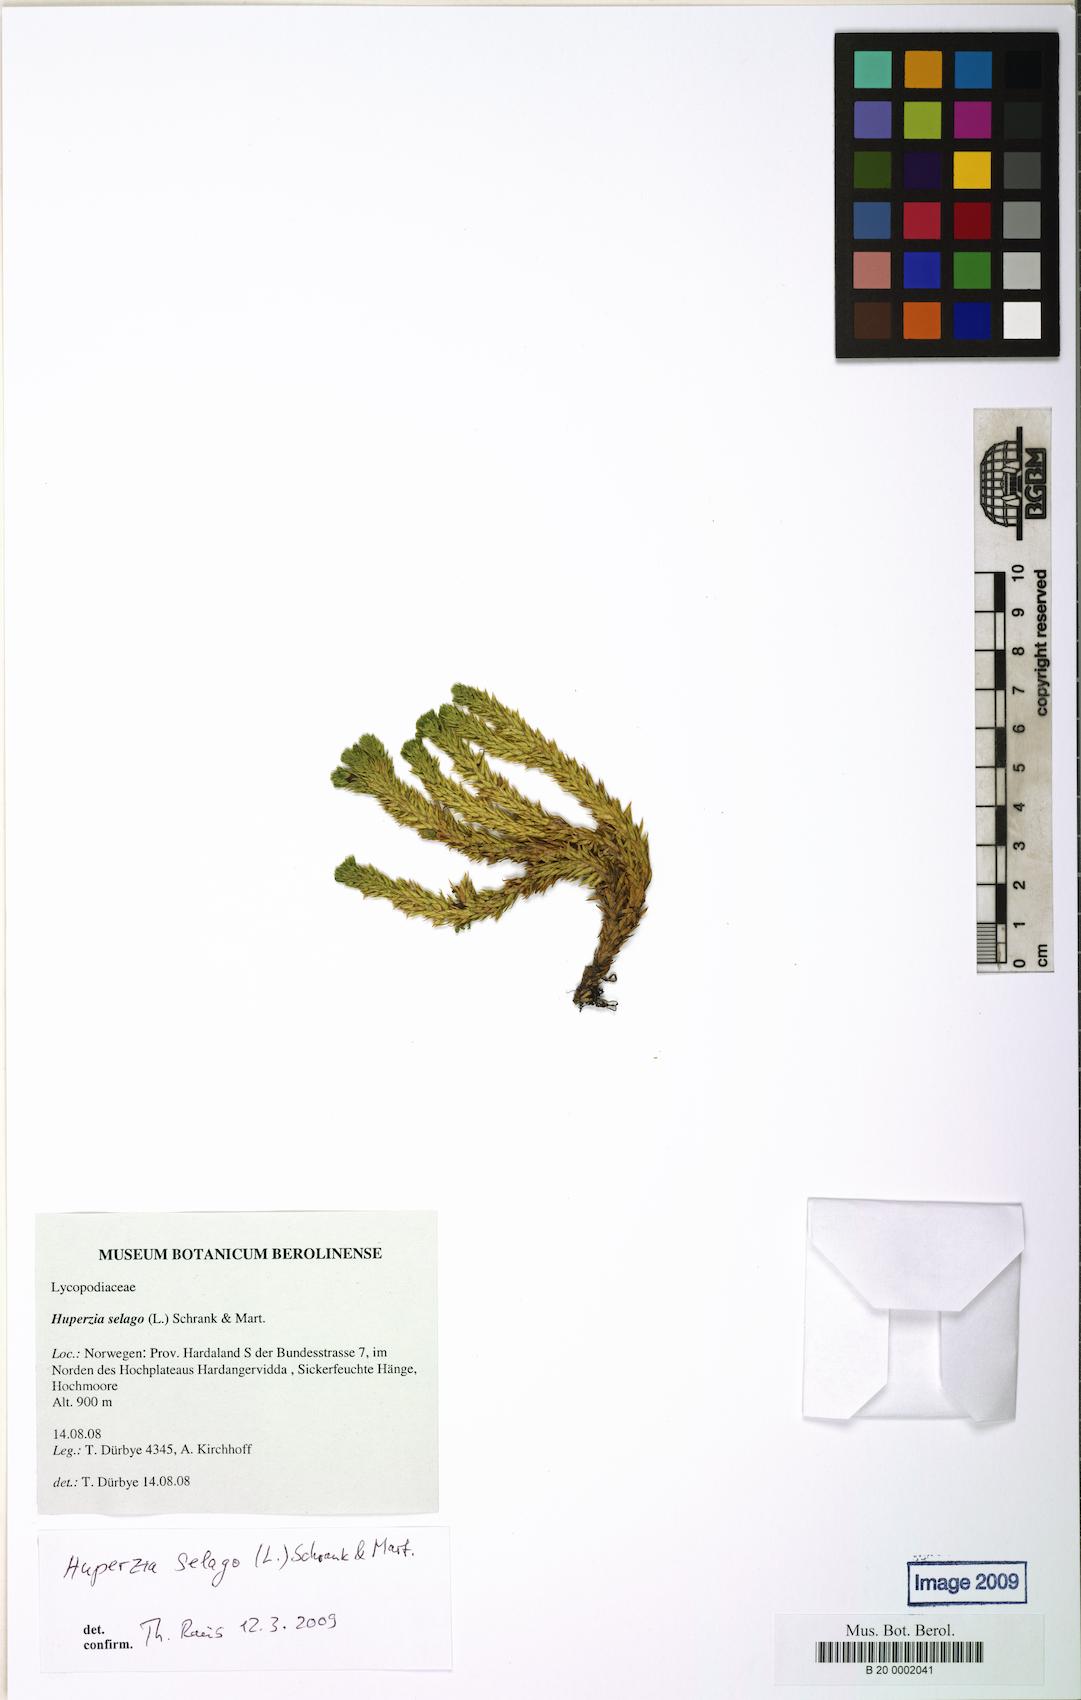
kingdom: Plantae
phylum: Tracheophyta
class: Lycopodiopsida
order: Lycopodiales
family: Lycopodiaceae
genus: Huperzia
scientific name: Huperzia selago
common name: Northern firmoss
